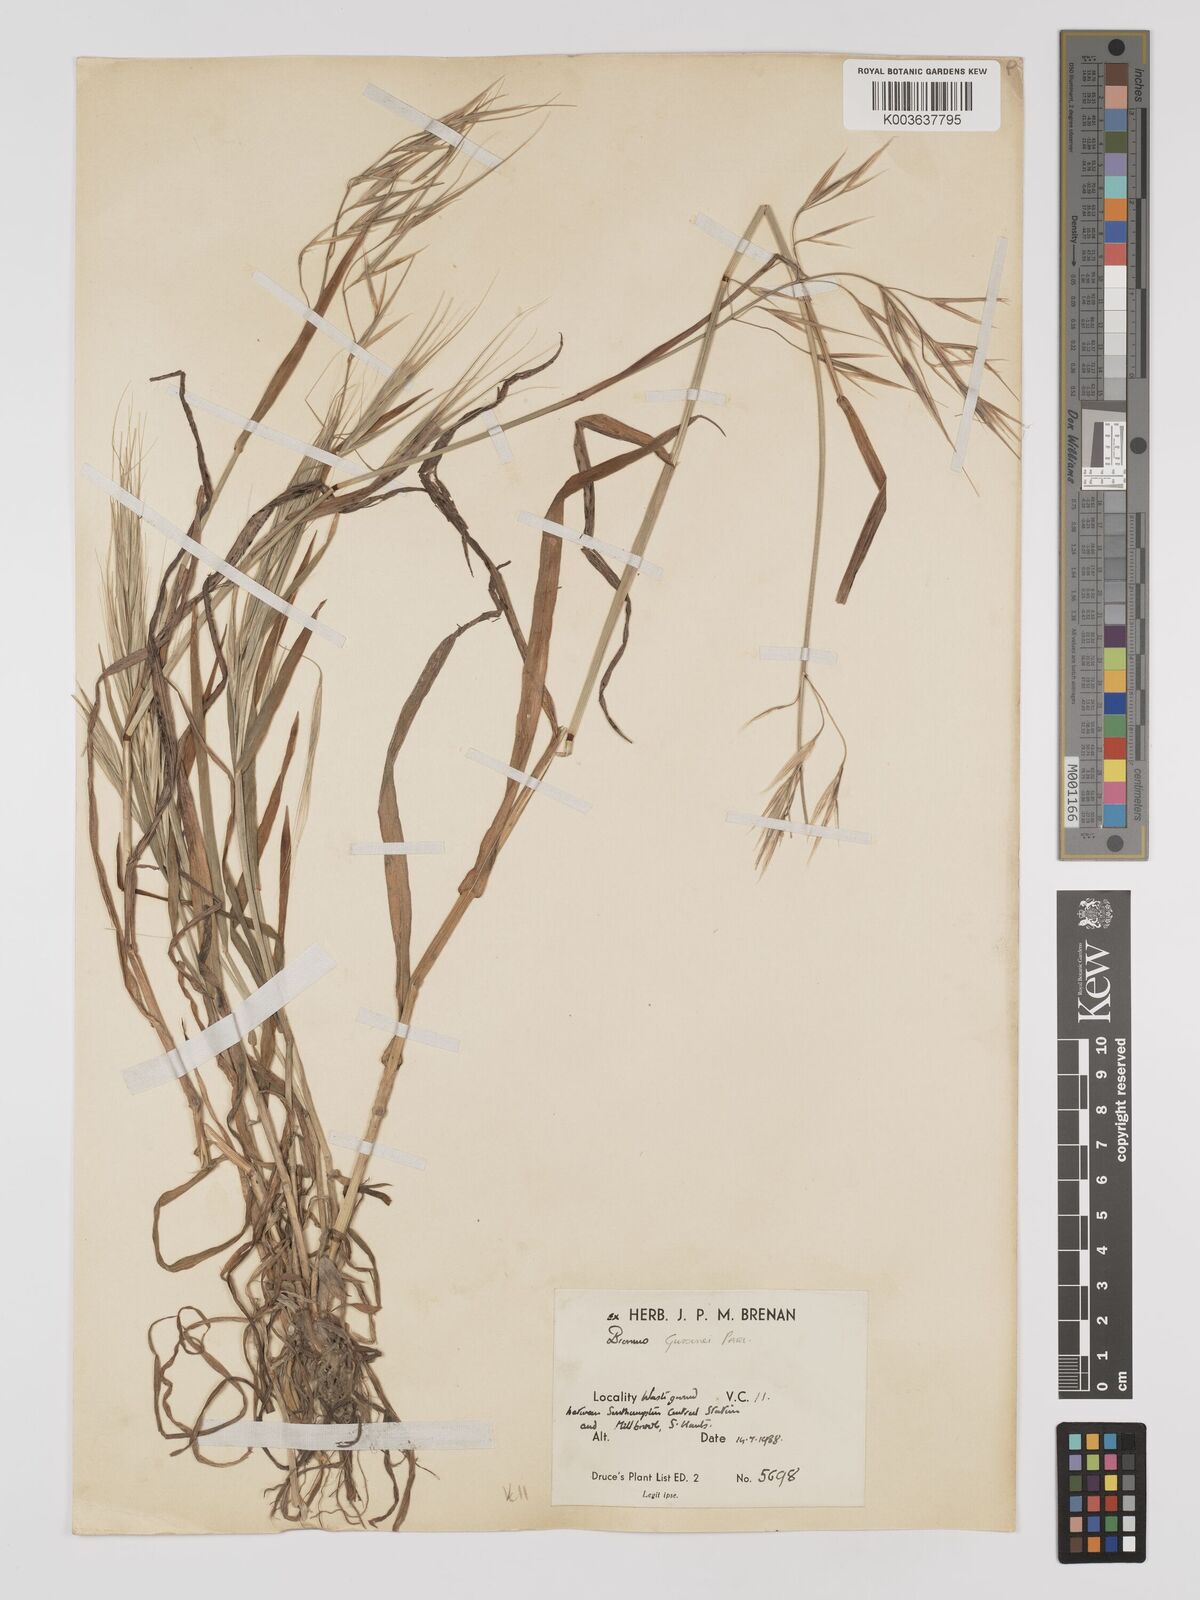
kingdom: Plantae
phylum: Tracheophyta
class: Liliopsida
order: Poales
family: Poaceae
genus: Bromus
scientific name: Bromus
